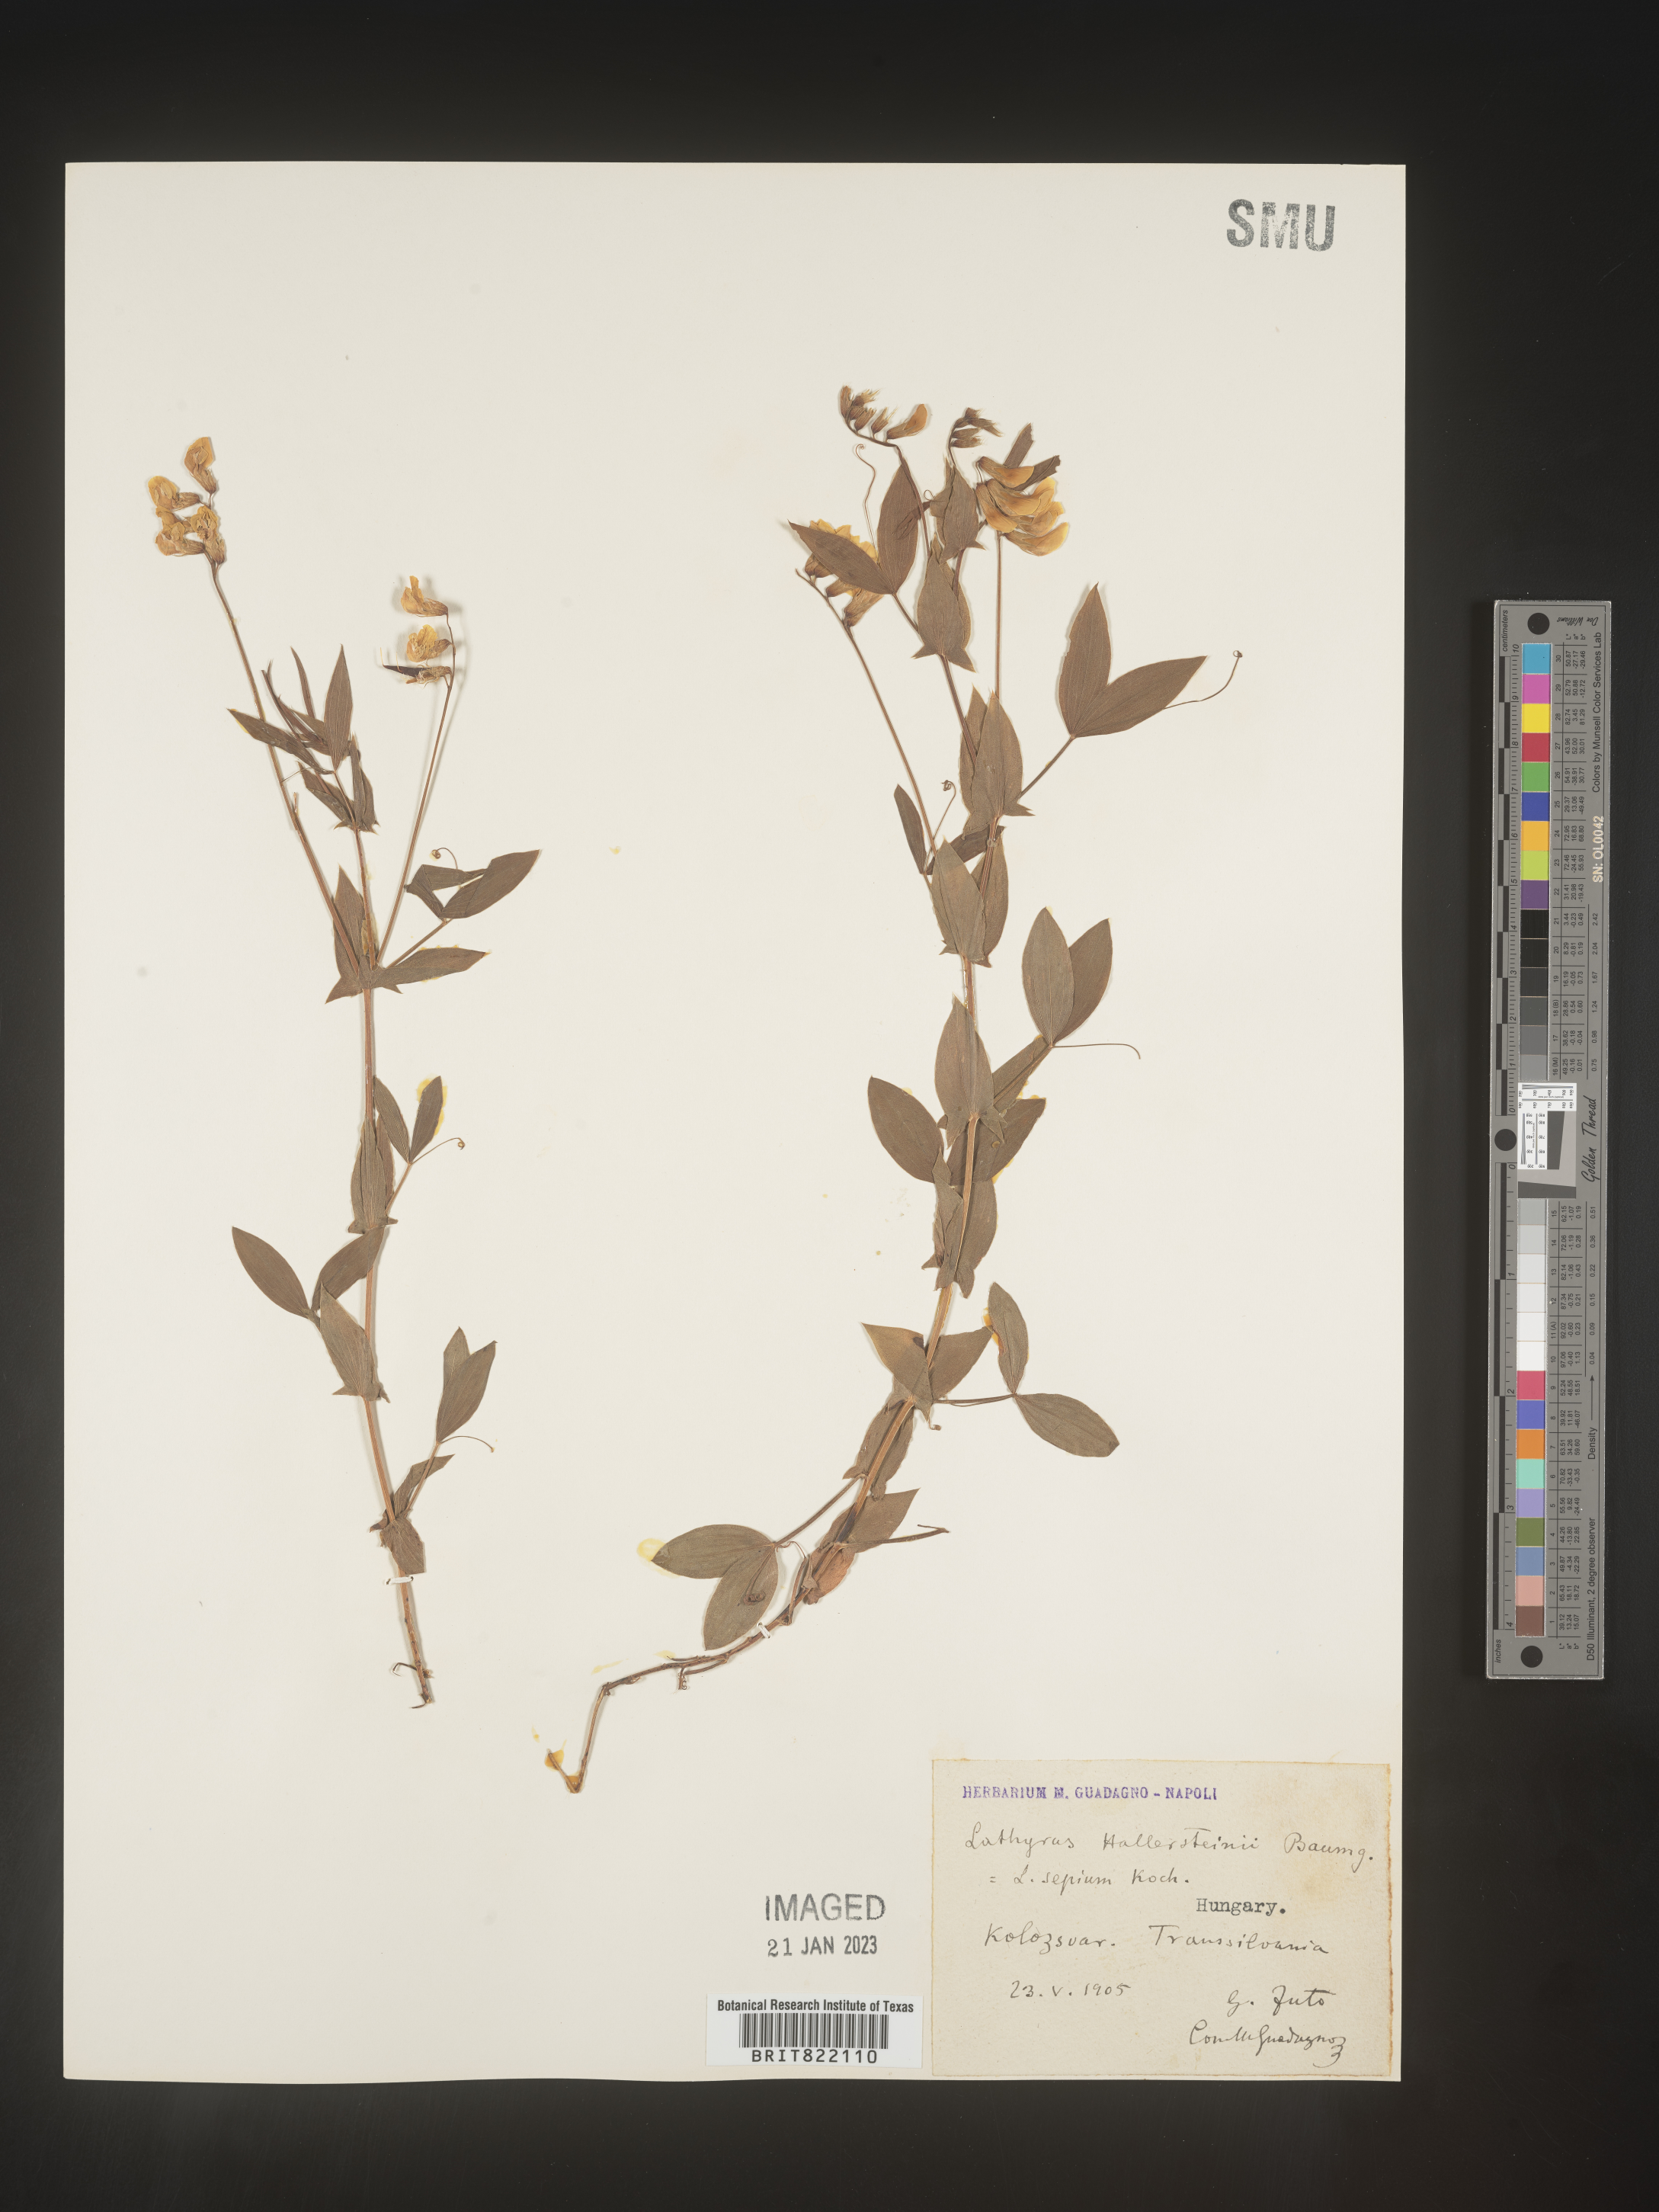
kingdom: Plantae
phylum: Tracheophyta
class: Magnoliopsida
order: Fabales
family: Fabaceae
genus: Lathyrus
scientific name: Lathyrus
